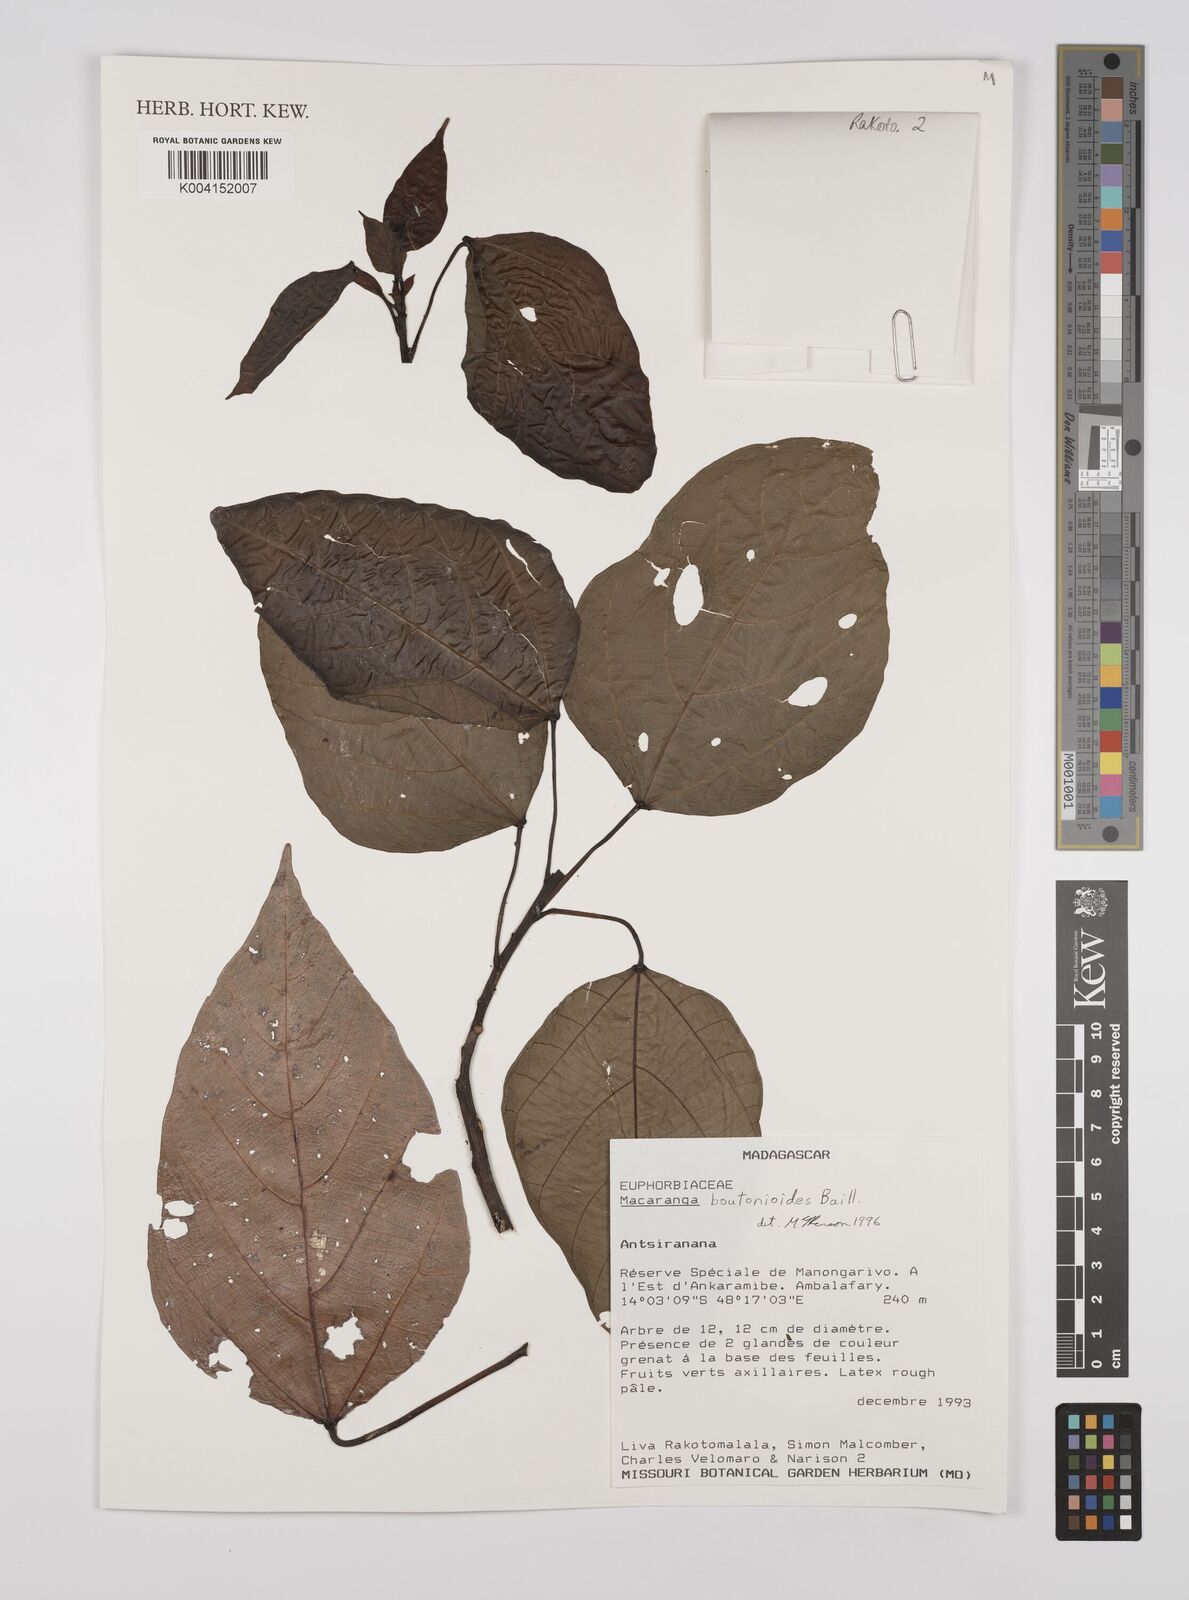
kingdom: Plantae
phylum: Tracheophyta
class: Magnoliopsida
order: Malpighiales
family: Euphorbiaceae
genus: Macaranga
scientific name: Macaranga
